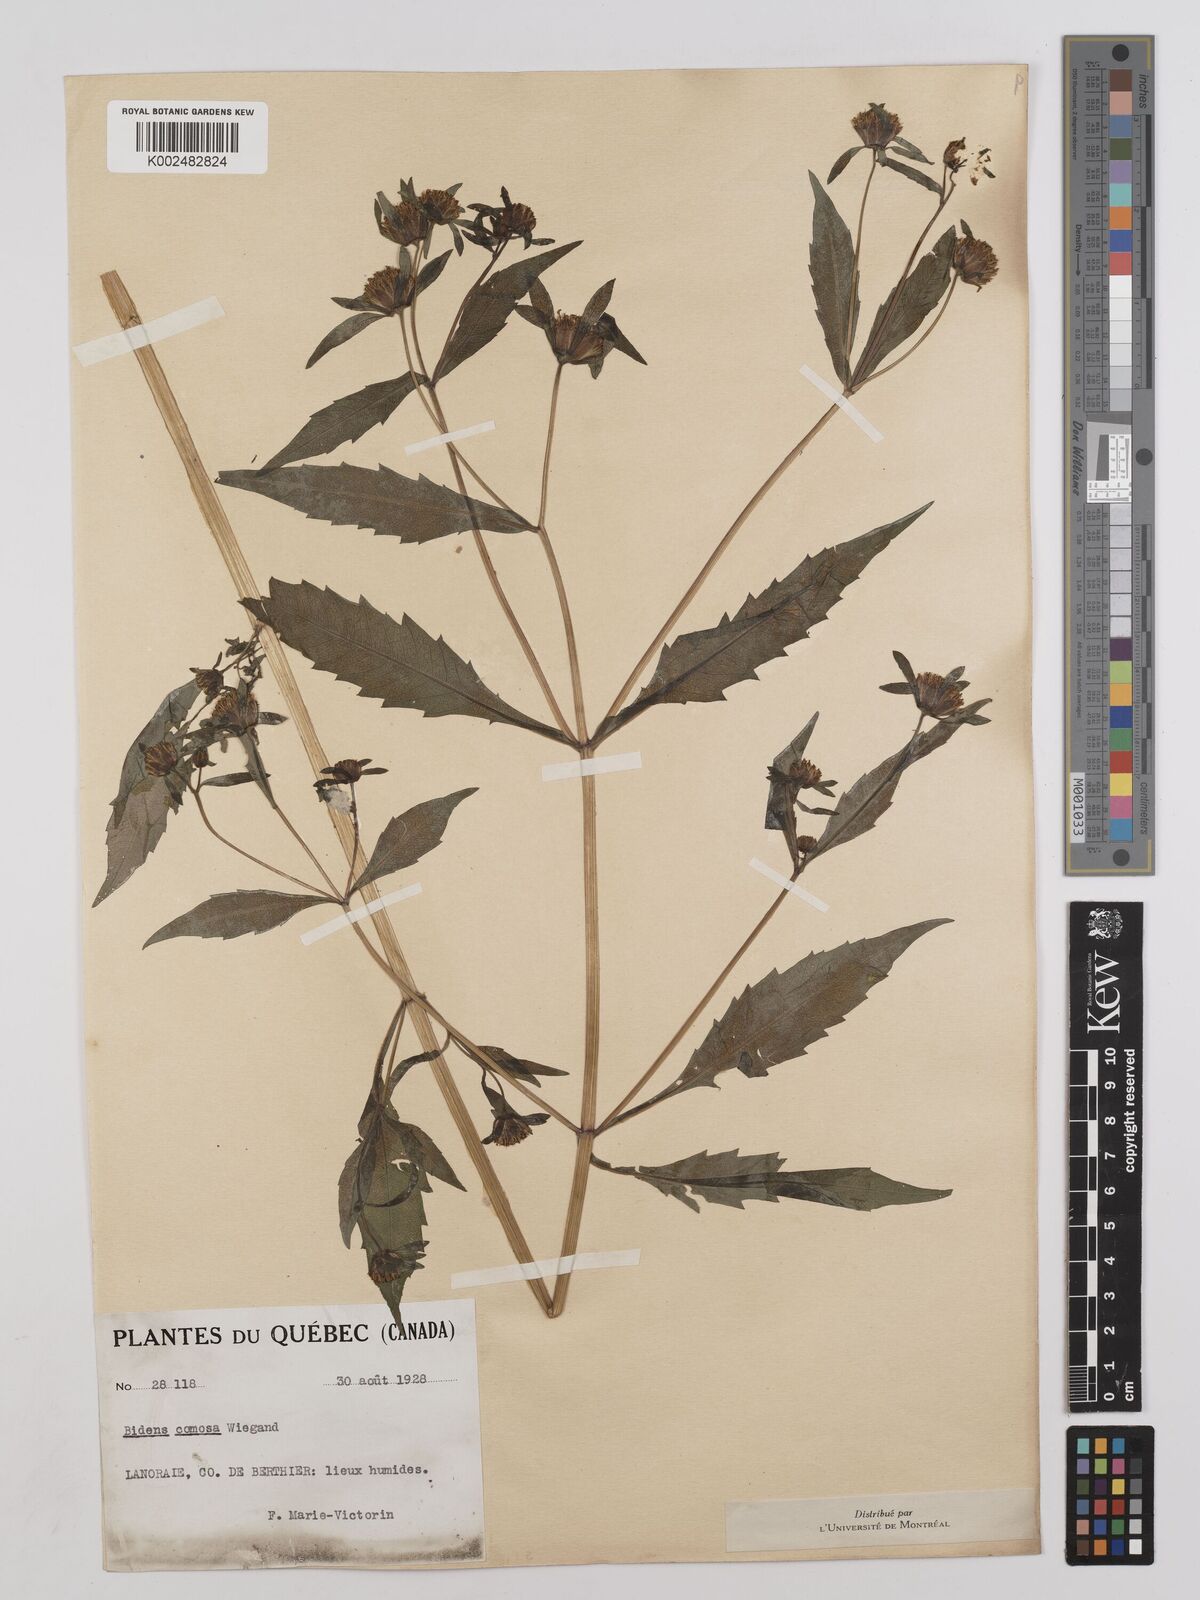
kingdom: Plantae
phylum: Tracheophyta
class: Magnoliopsida
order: Asterales
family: Asteraceae
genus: Bidens
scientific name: Bidens connata
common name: London bur-marigold
